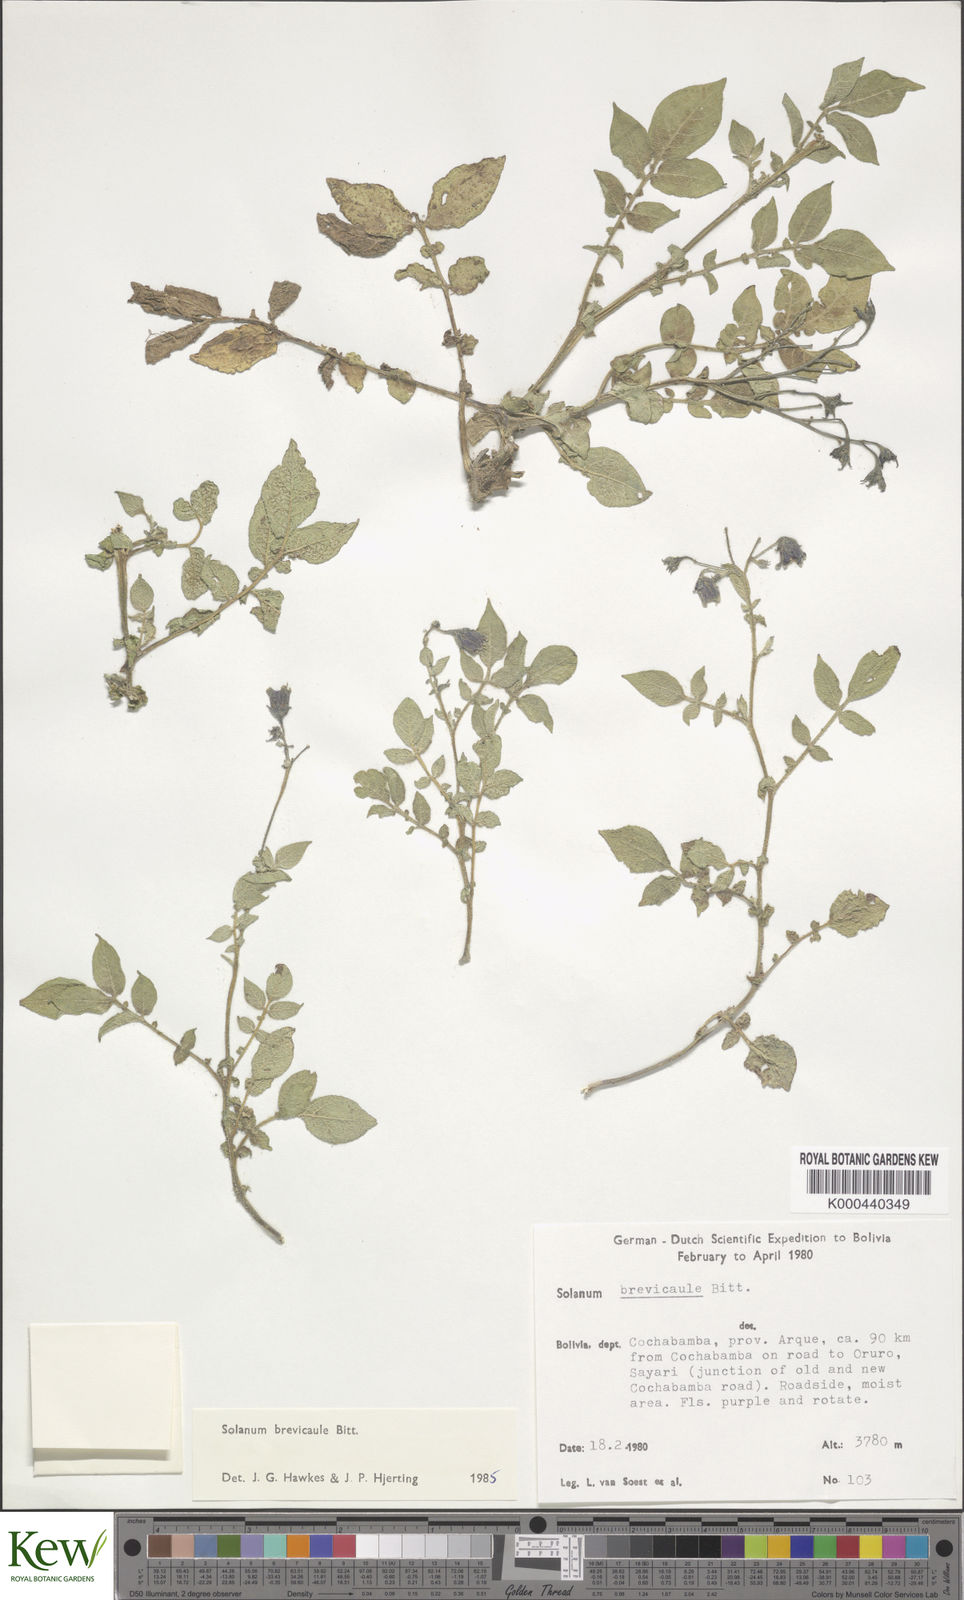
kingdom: Plantae
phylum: Tracheophyta
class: Magnoliopsida
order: Solanales
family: Solanaceae
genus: Solanum
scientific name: Solanum brevicaule
